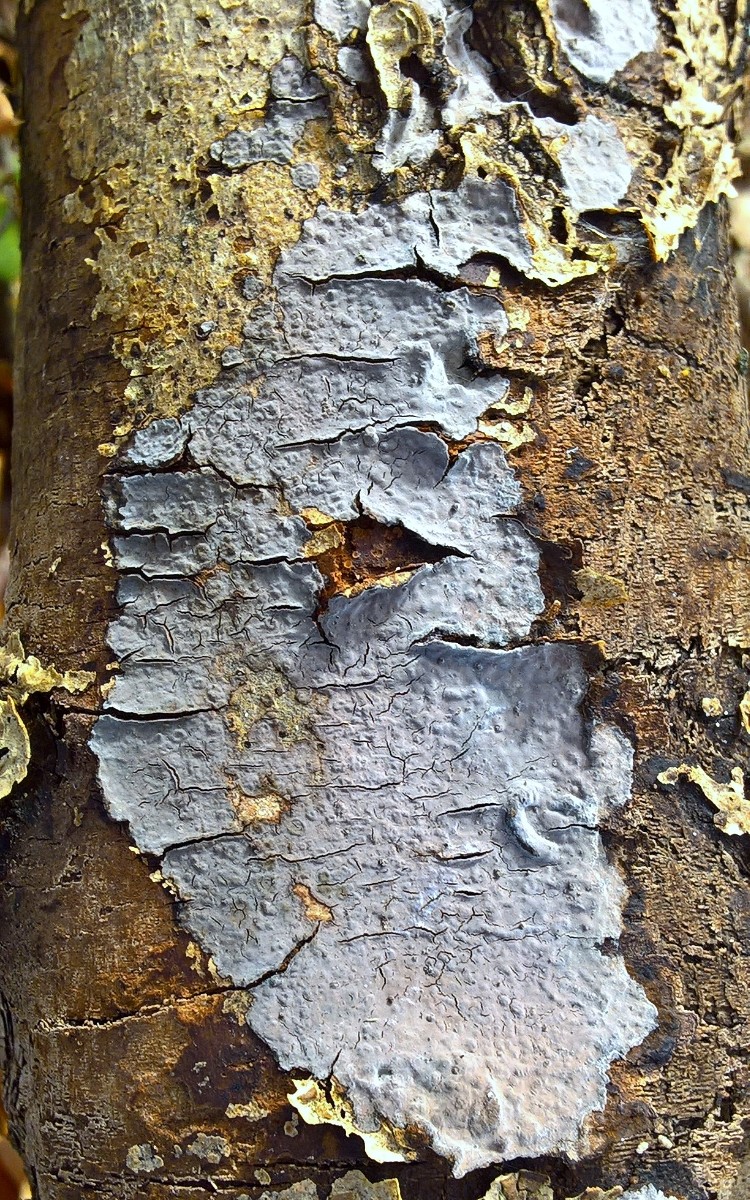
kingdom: Fungi
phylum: Basidiomycota
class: Agaricomycetes
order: Russulales
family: Peniophoraceae
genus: Peniophora
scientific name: Peniophora
